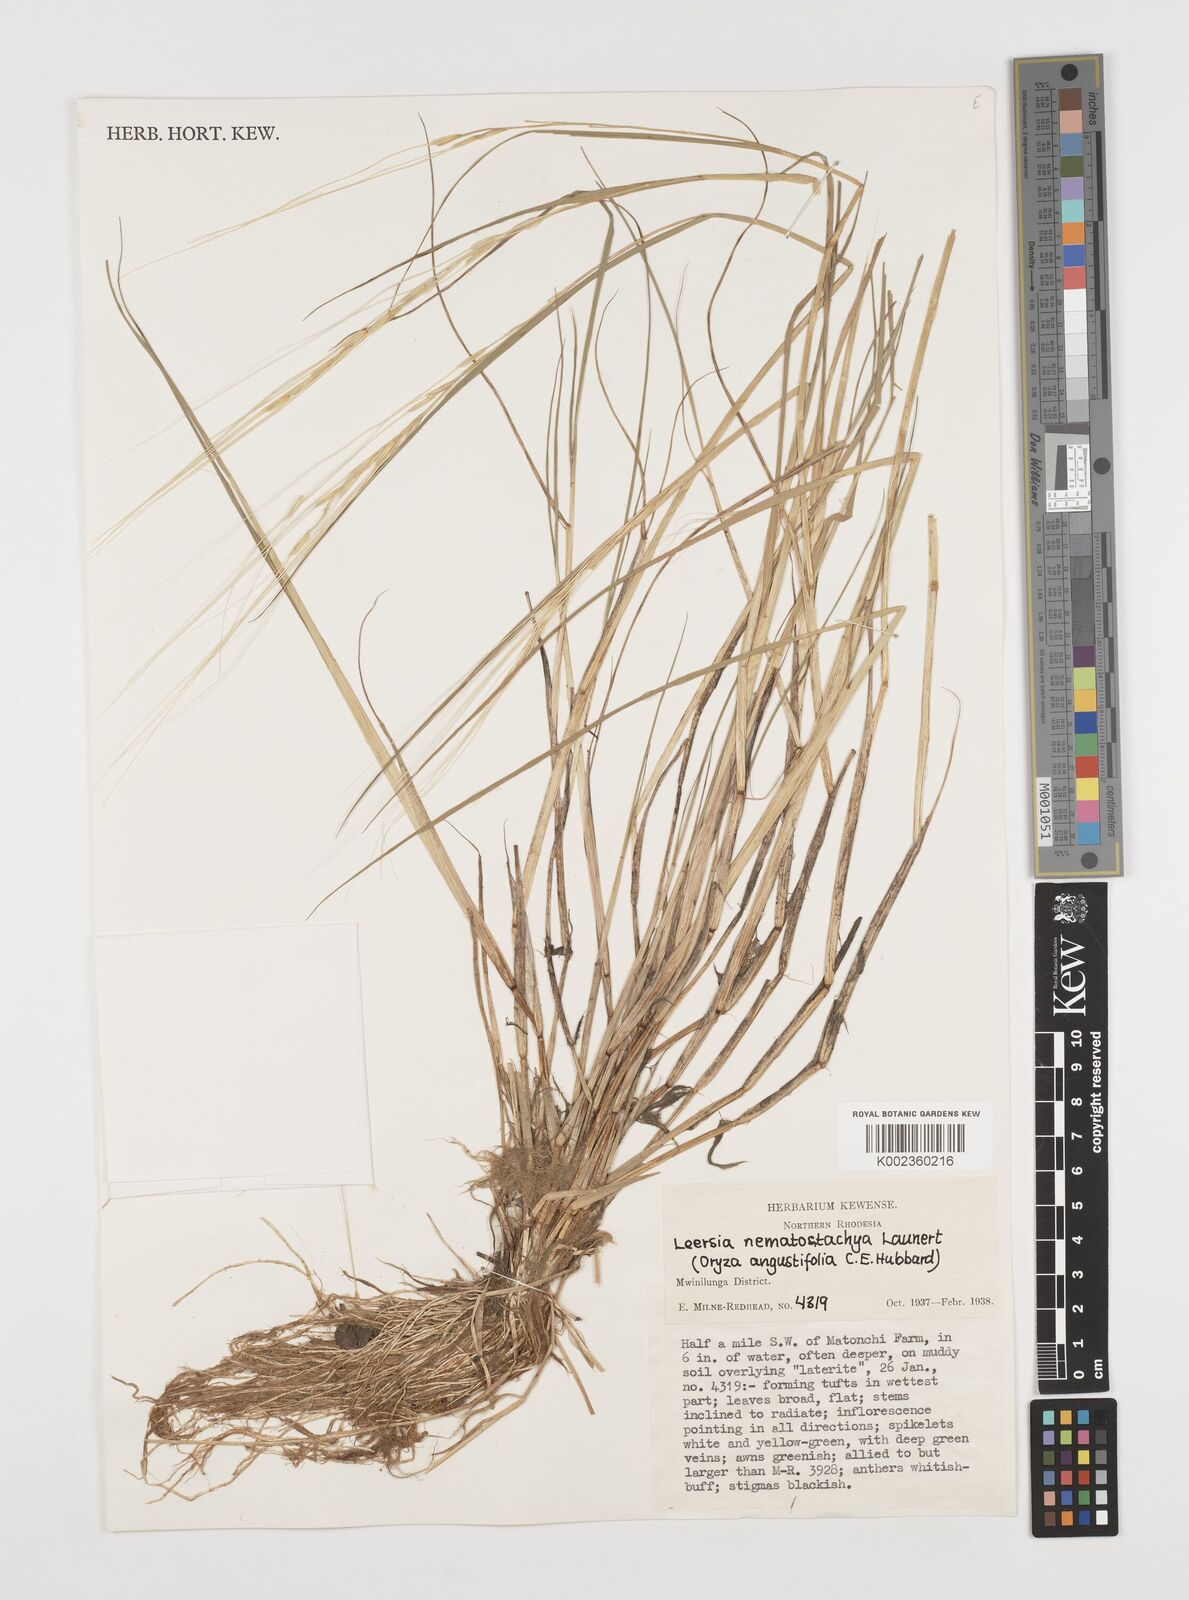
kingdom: Plantae
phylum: Tracheophyta
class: Liliopsida
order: Poales
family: Poaceae
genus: Leersia
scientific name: Leersia nematostachya
